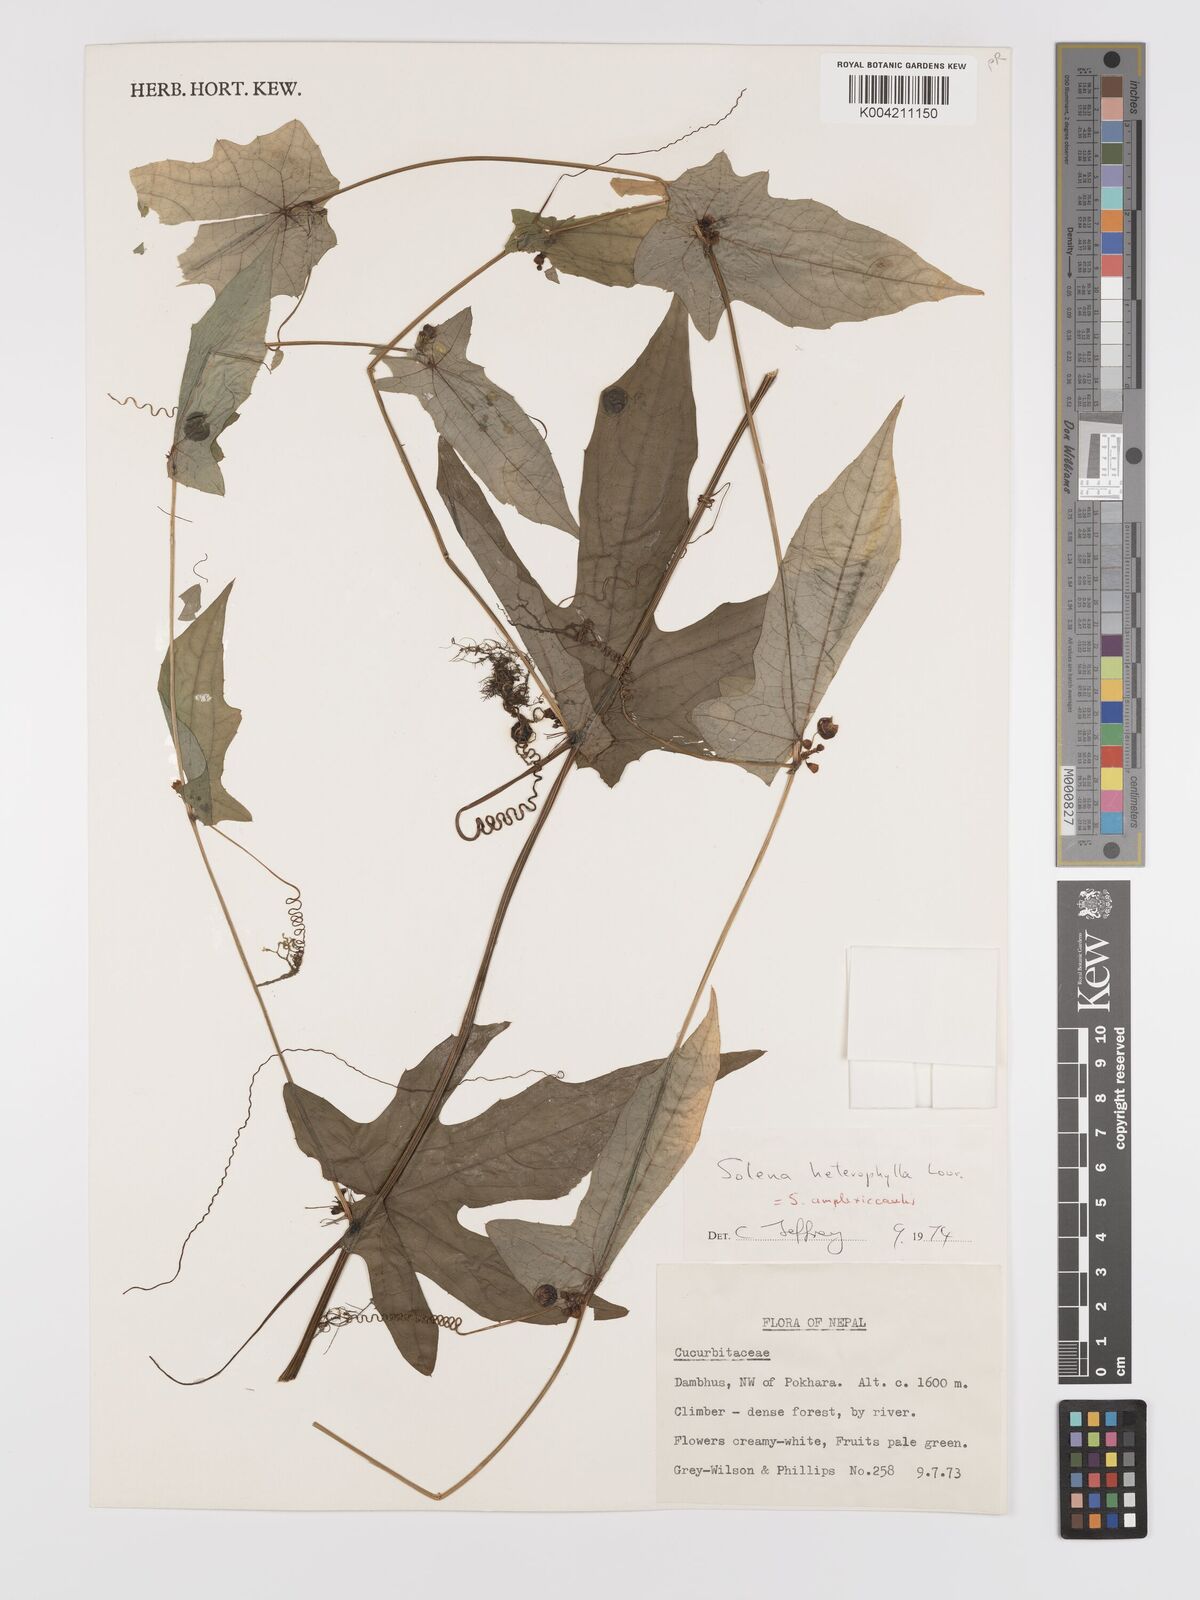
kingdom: Plantae
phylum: Tracheophyta
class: Magnoliopsida
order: Cucurbitales
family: Cucurbitaceae
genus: Solena
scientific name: Solena
